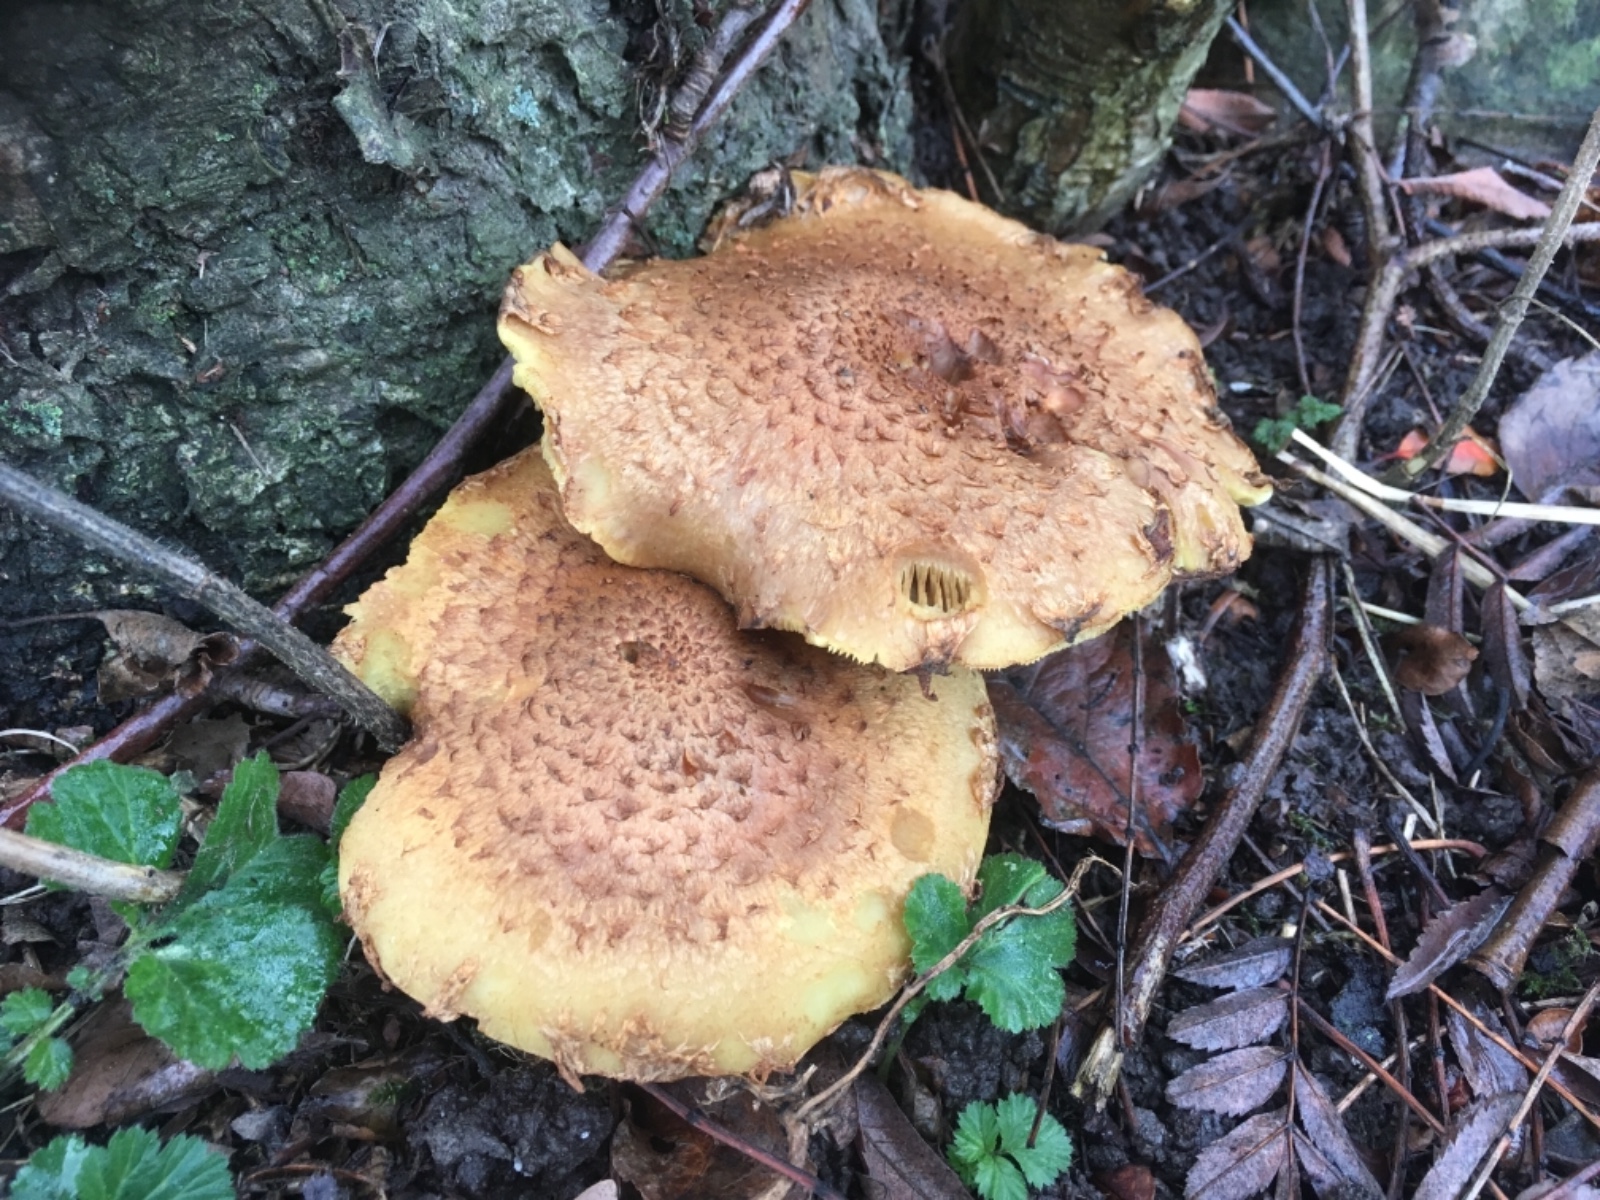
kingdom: Fungi
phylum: Basidiomycota
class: Agaricomycetes
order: Agaricales
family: Strophariaceae
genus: Pholiota
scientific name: Pholiota squarrosa
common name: krumskællet skælhat
